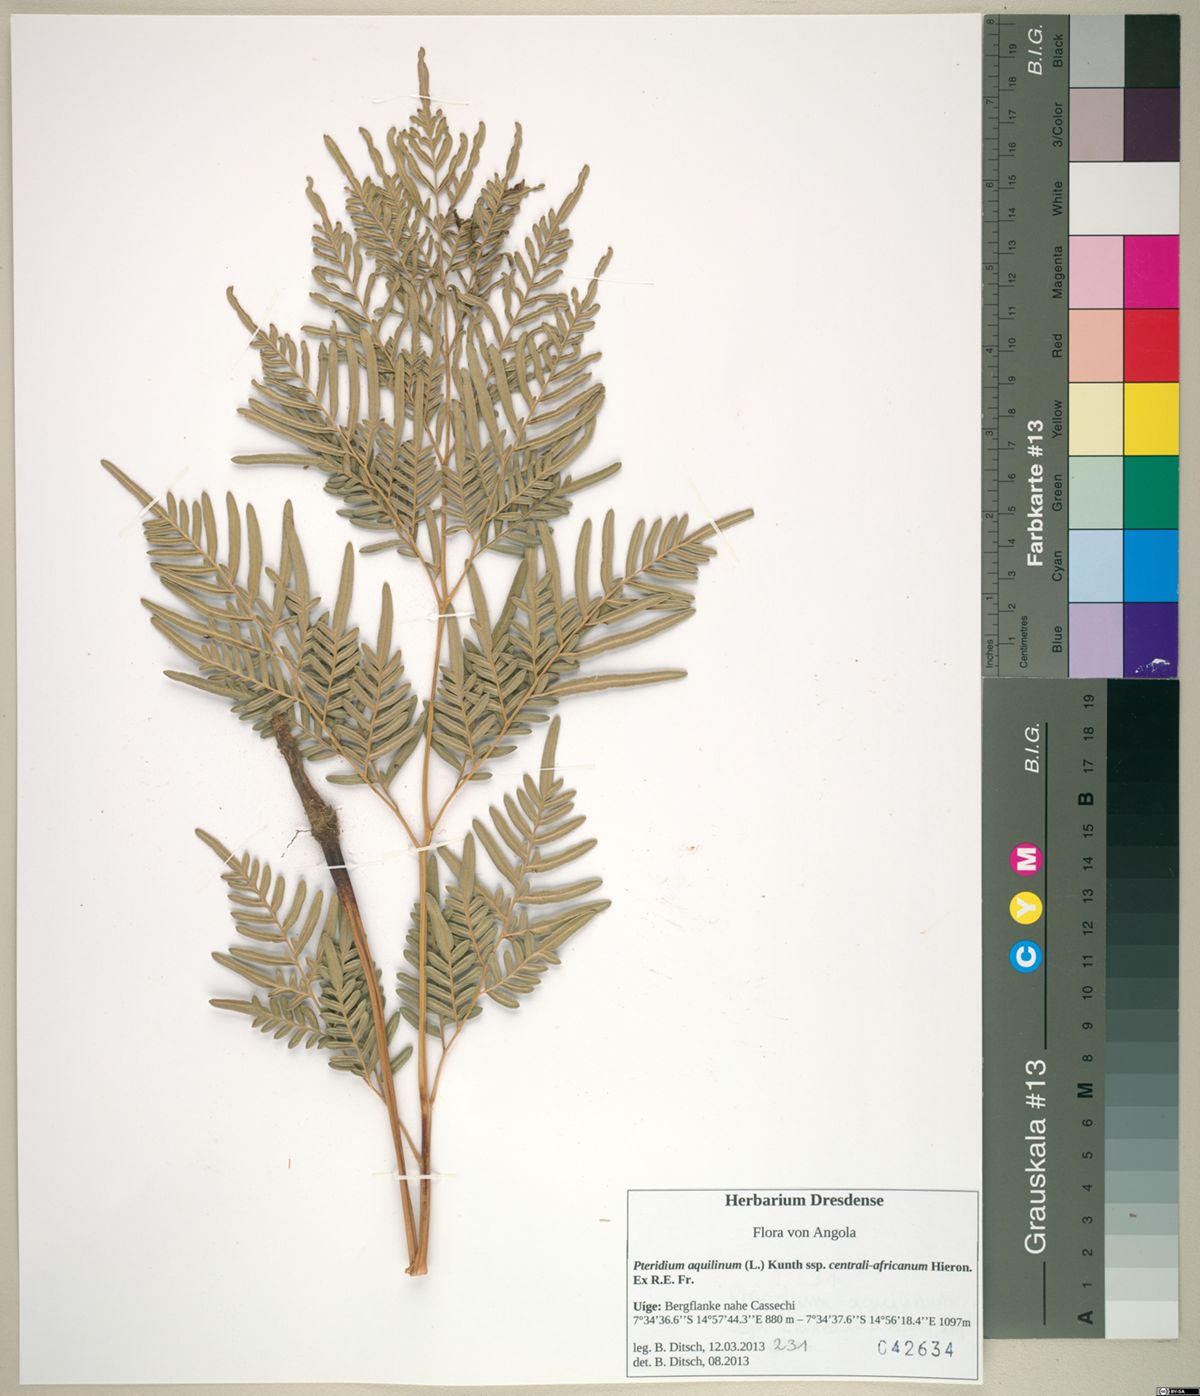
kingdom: Plantae
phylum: Tracheophyta
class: Polypodiopsida
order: Polypodiales
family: Dennstaedtiaceae
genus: Pteridium
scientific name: Pteridium aquilinum
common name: Bracken
